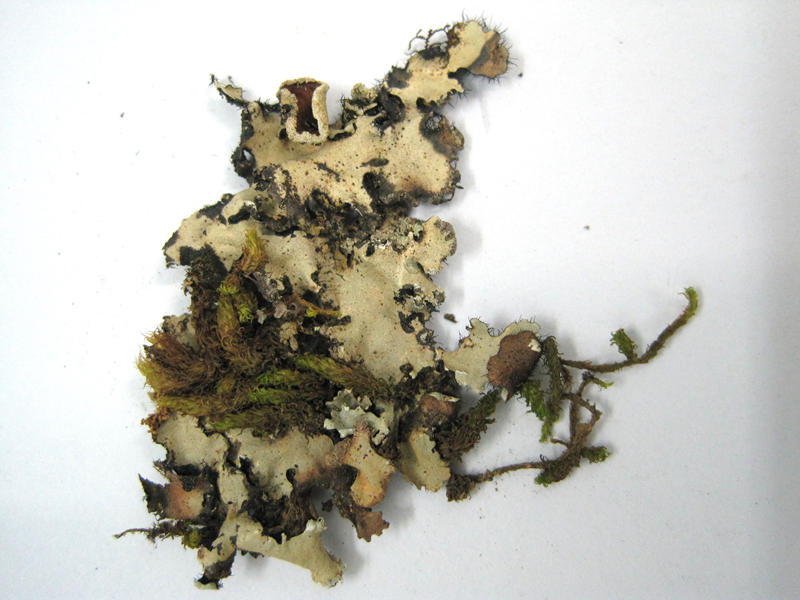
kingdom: Plantae
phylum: Bryophyta
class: Bryopsida
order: Orthotrichales
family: Orthotrichaceae
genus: Macromitrium
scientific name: Macromitrium cuspidatum
